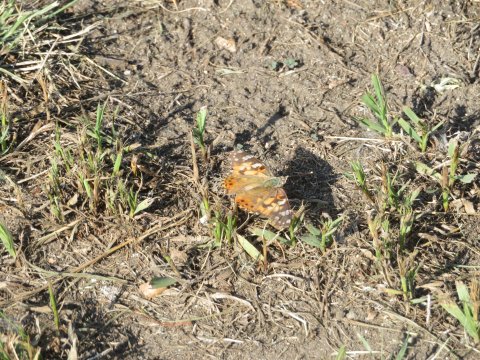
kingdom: Animalia
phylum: Arthropoda
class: Insecta
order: Lepidoptera
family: Nymphalidae
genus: Vanessa
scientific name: Vanessa cardui
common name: Painted Lady
